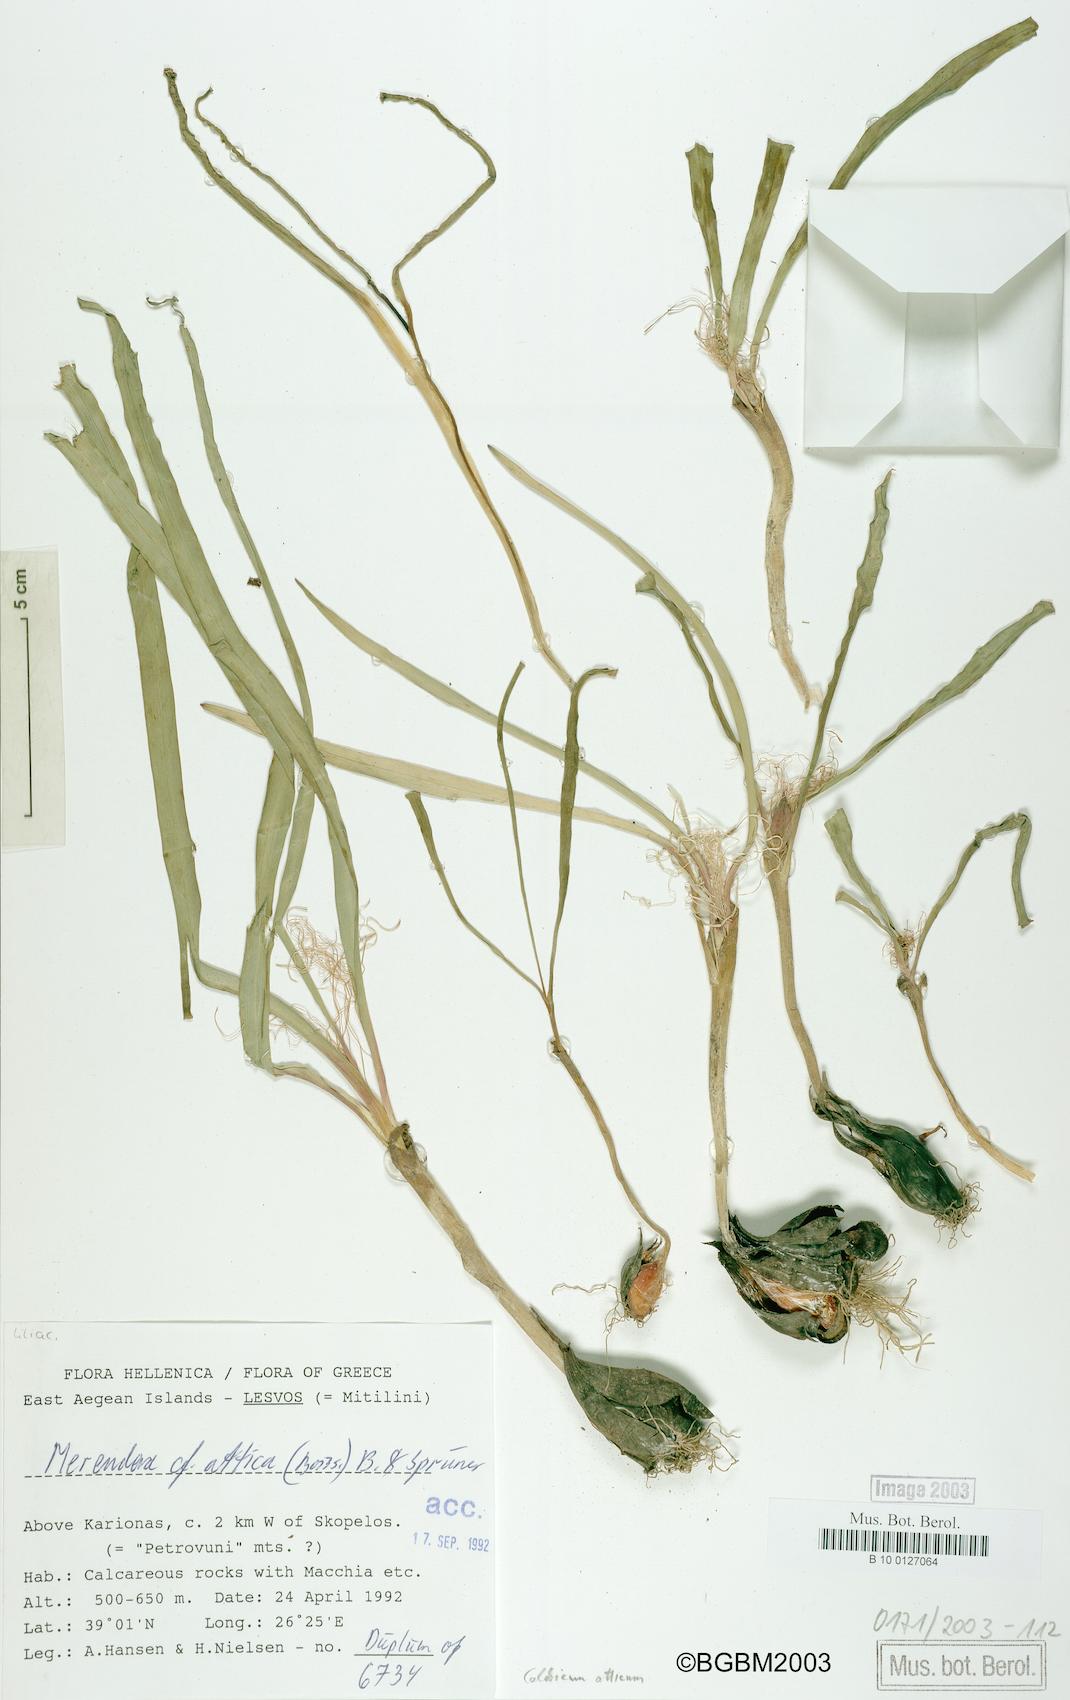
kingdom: Plantae
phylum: Tracheophyta
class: Liliopsida
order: Liliales
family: Colchicaceae
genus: Colchicum
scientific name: Colchicum atticum
